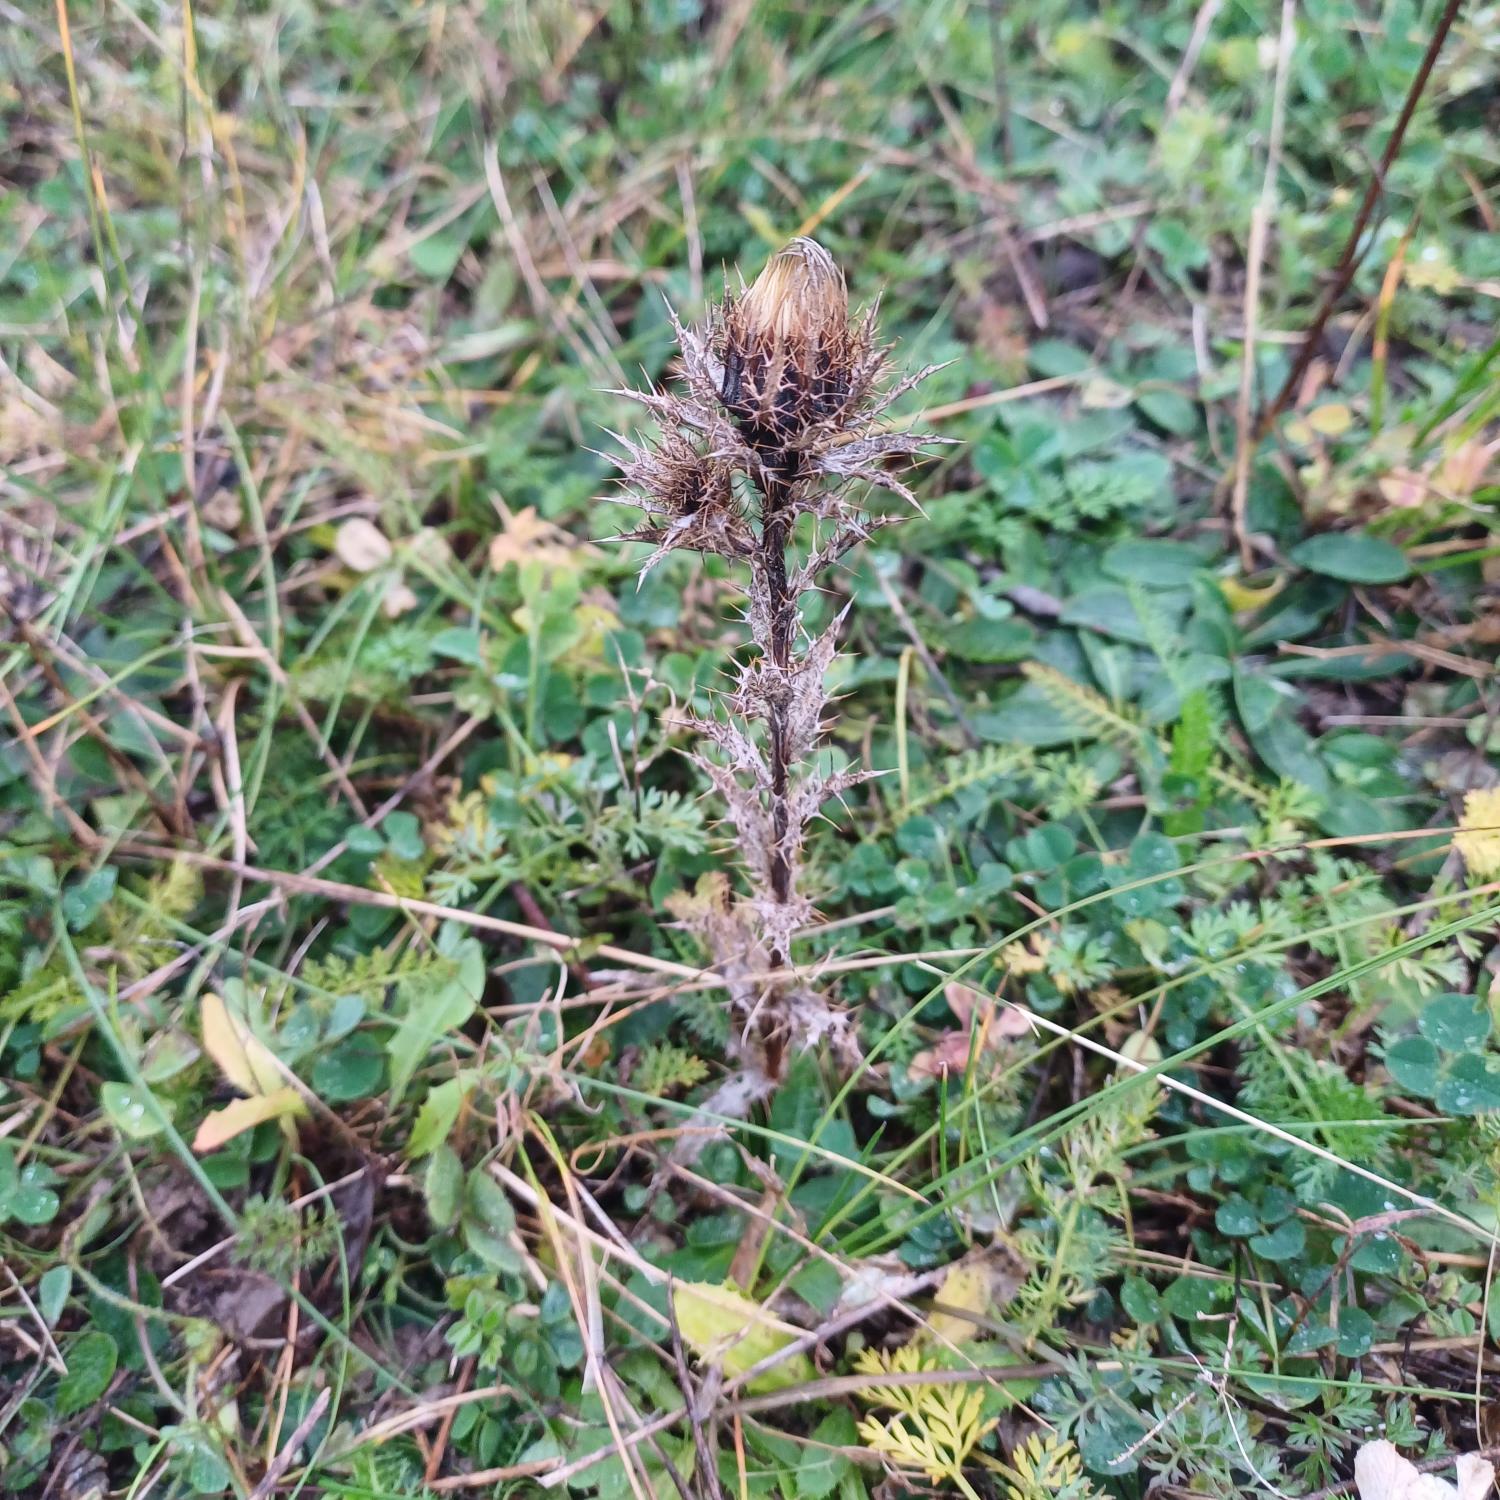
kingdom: Plantae
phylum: Tracheophyta
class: Magnoliopsida
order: Asterales
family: Asteraceae
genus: Carlina
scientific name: Carlina vulgaris
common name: Bakketidsel
